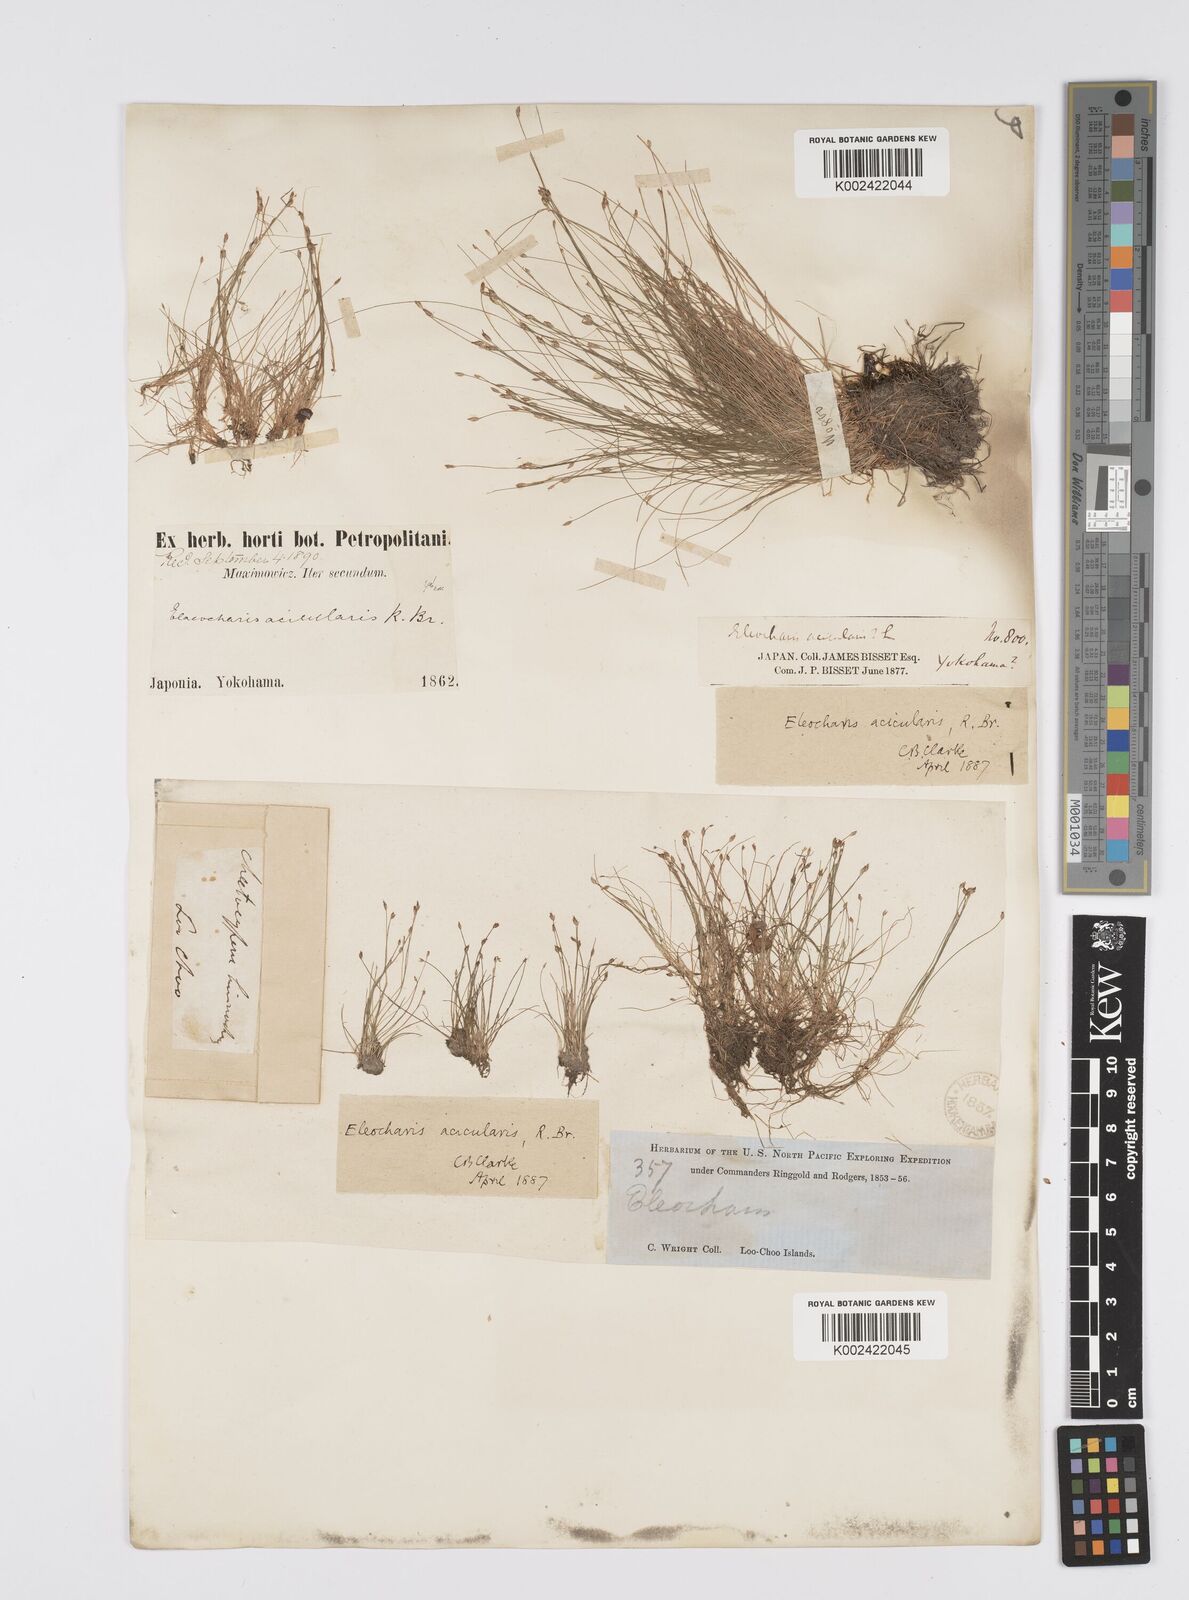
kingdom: Plantae
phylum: Tracheophyta
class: Liliopsida
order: Poales
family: Cyperaceae
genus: Eleocharis
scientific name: Eleocharis acicularis
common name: Needle spike-rush
